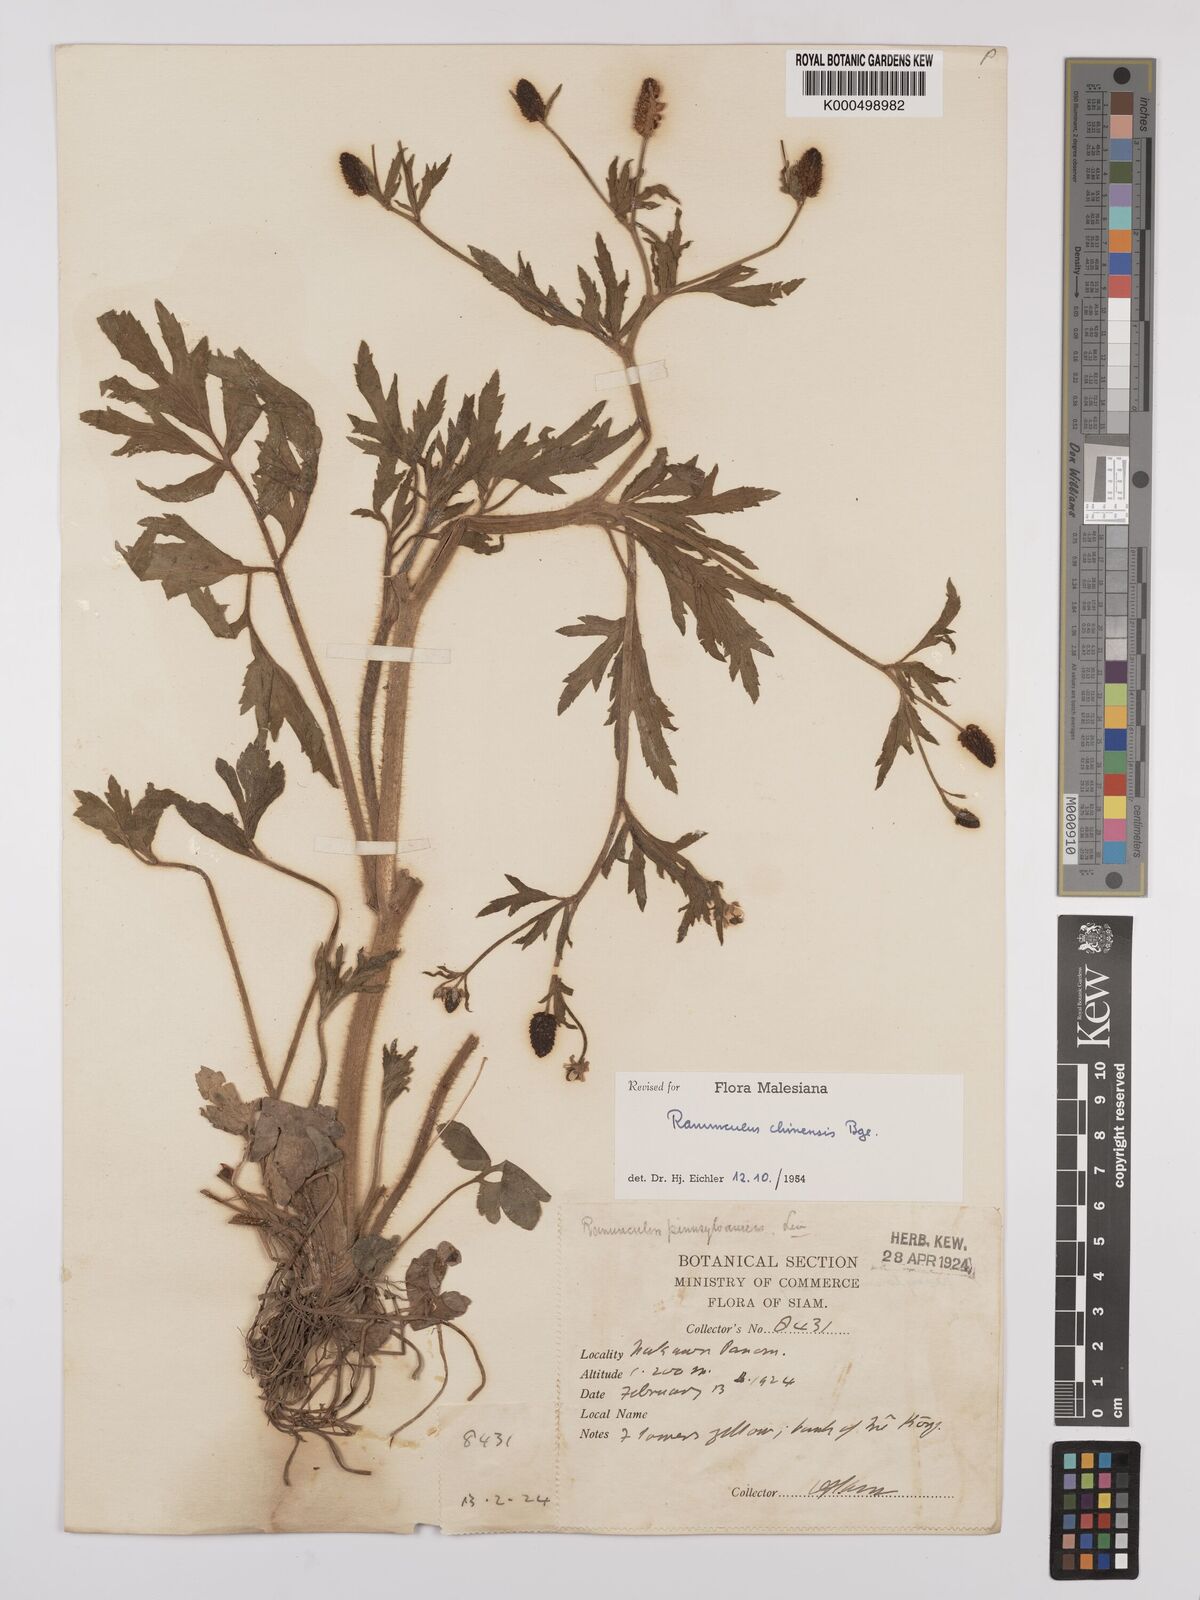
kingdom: Plantae
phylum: Tracheophyta
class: Magnoliopsida
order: Ranunculales
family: Ranunculaceae
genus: Ranunculus
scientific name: Ranunculus pensylvanicus
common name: Bristly buttercup
